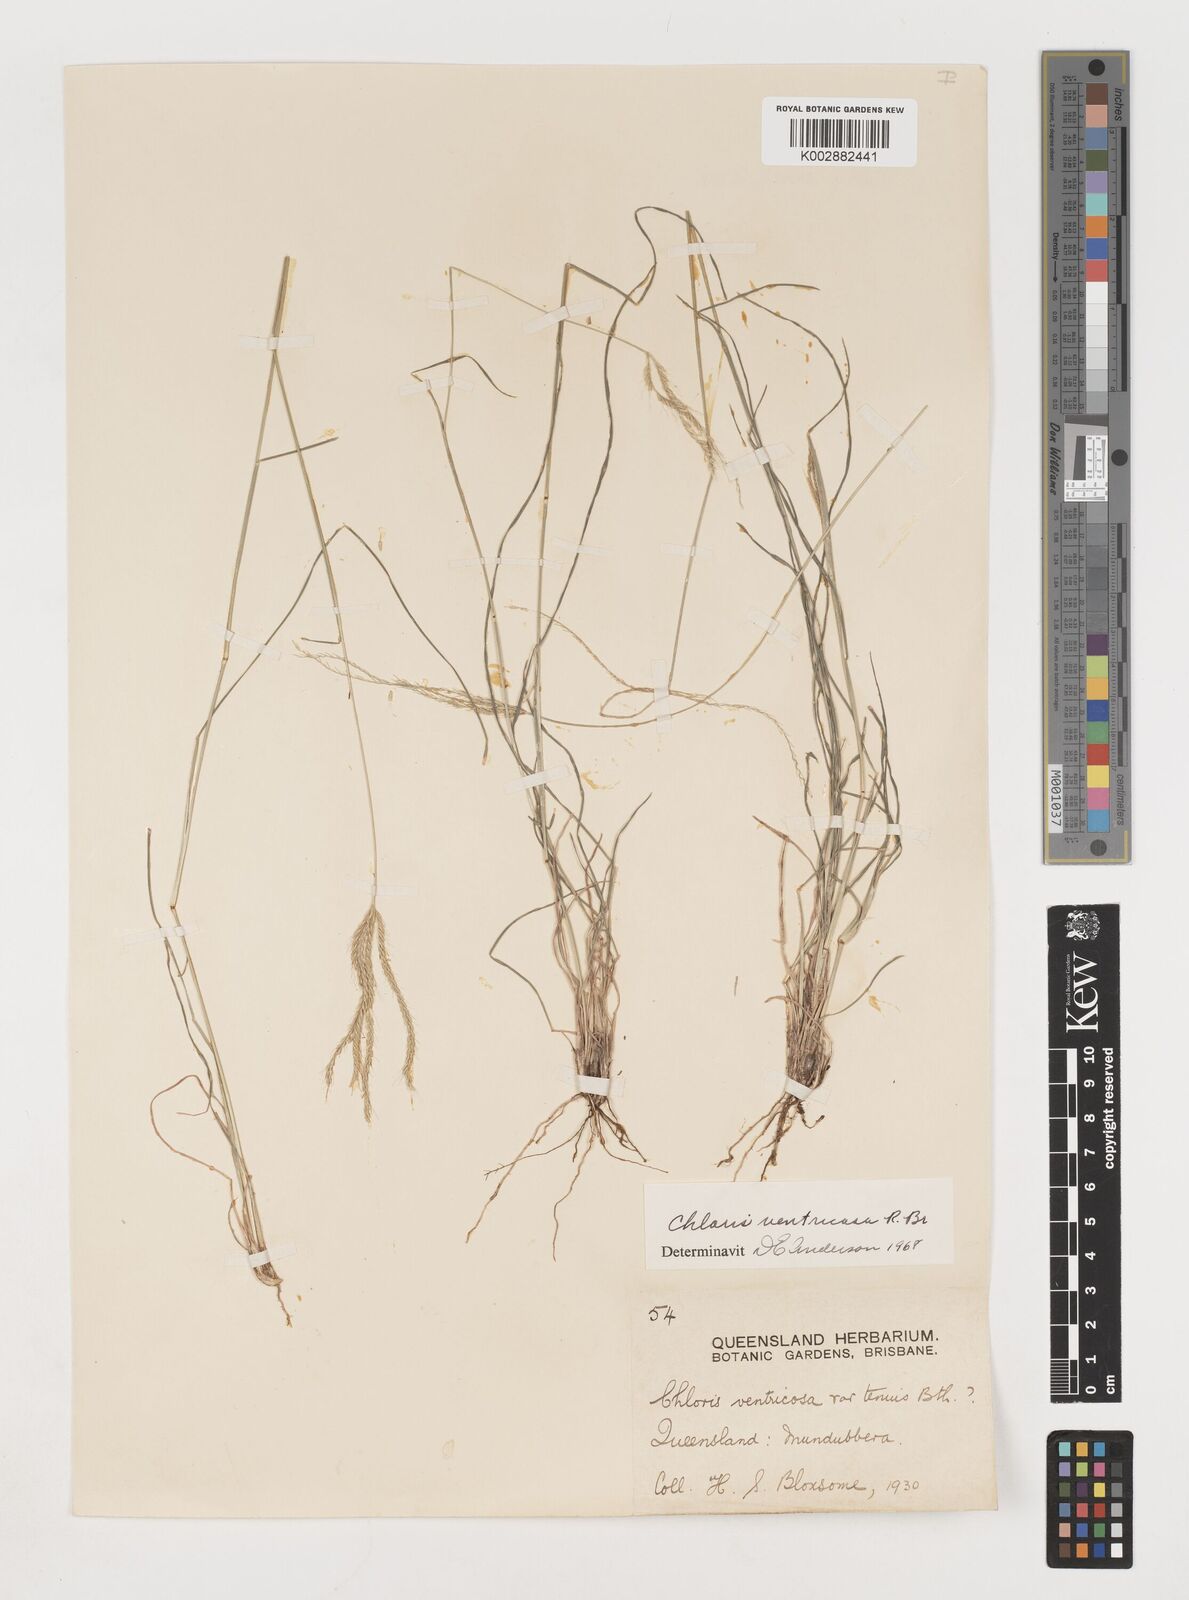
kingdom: Plantae
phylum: Tracheophyta
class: Liliopsida
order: Poales
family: Poaceae
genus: Chloris
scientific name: Chloris ventricosa
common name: Australian windmill grass
